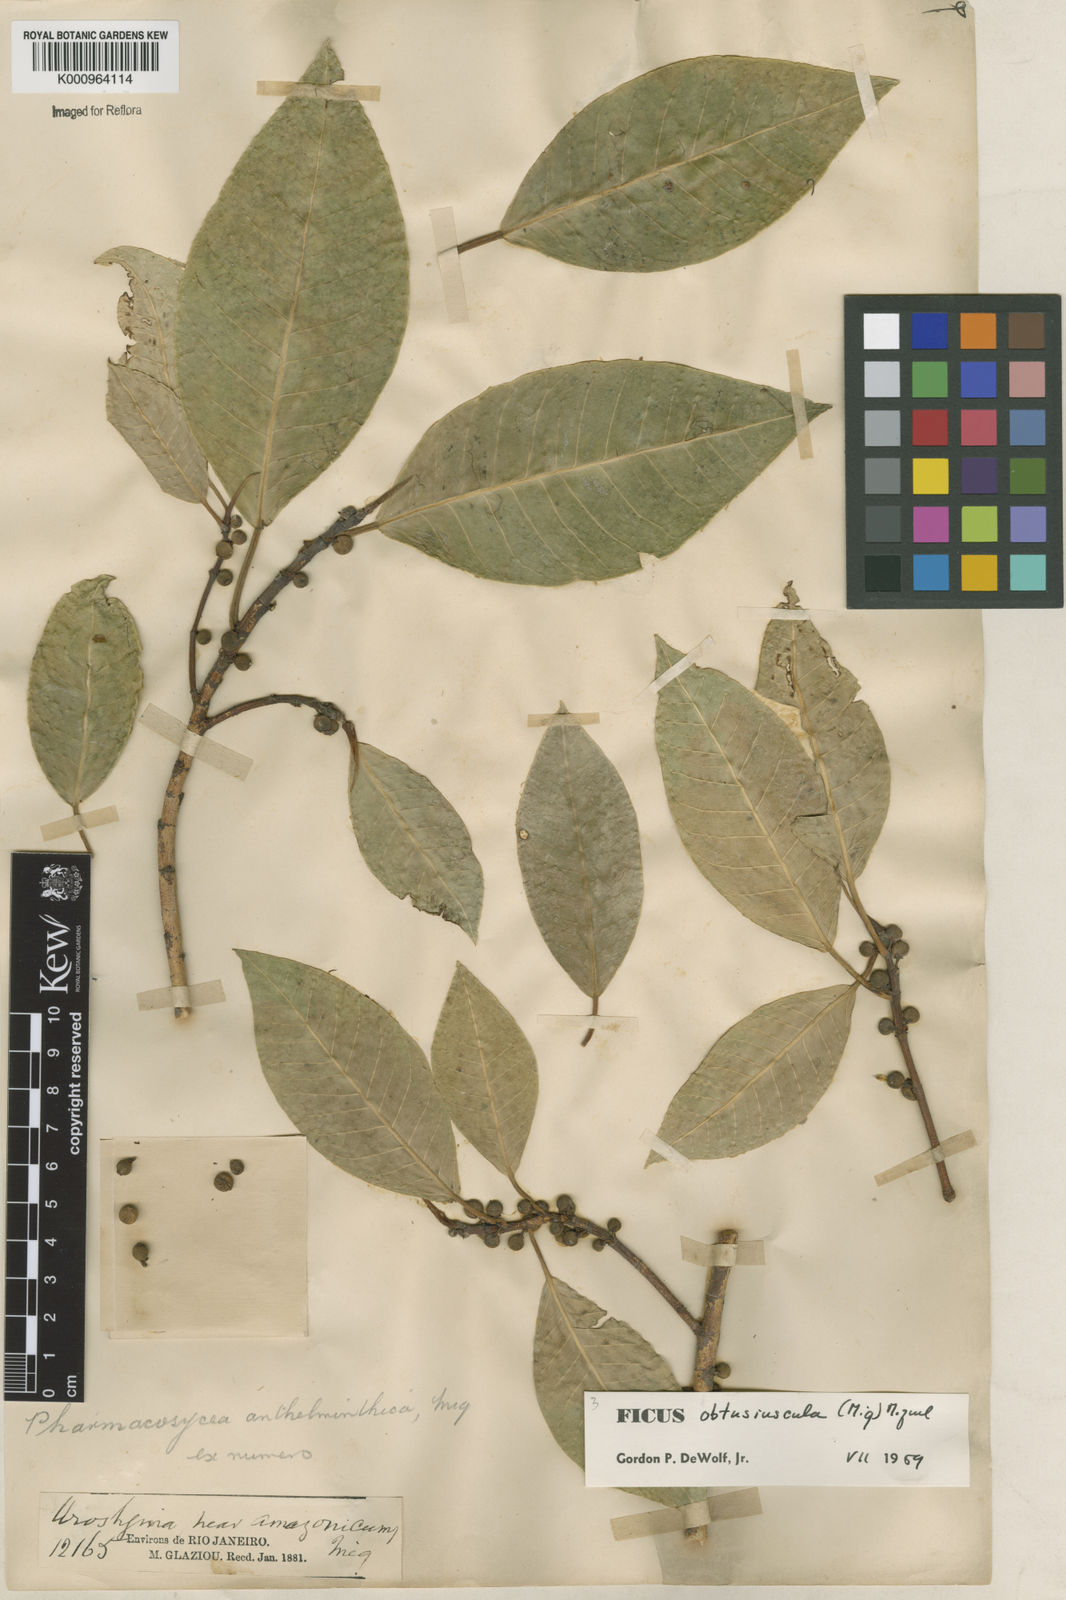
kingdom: Plantae
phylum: Tracheophyta
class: Magnoliopsida
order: Rosales
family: Moraceae
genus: Ficus
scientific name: Ficus obtusiuscula
